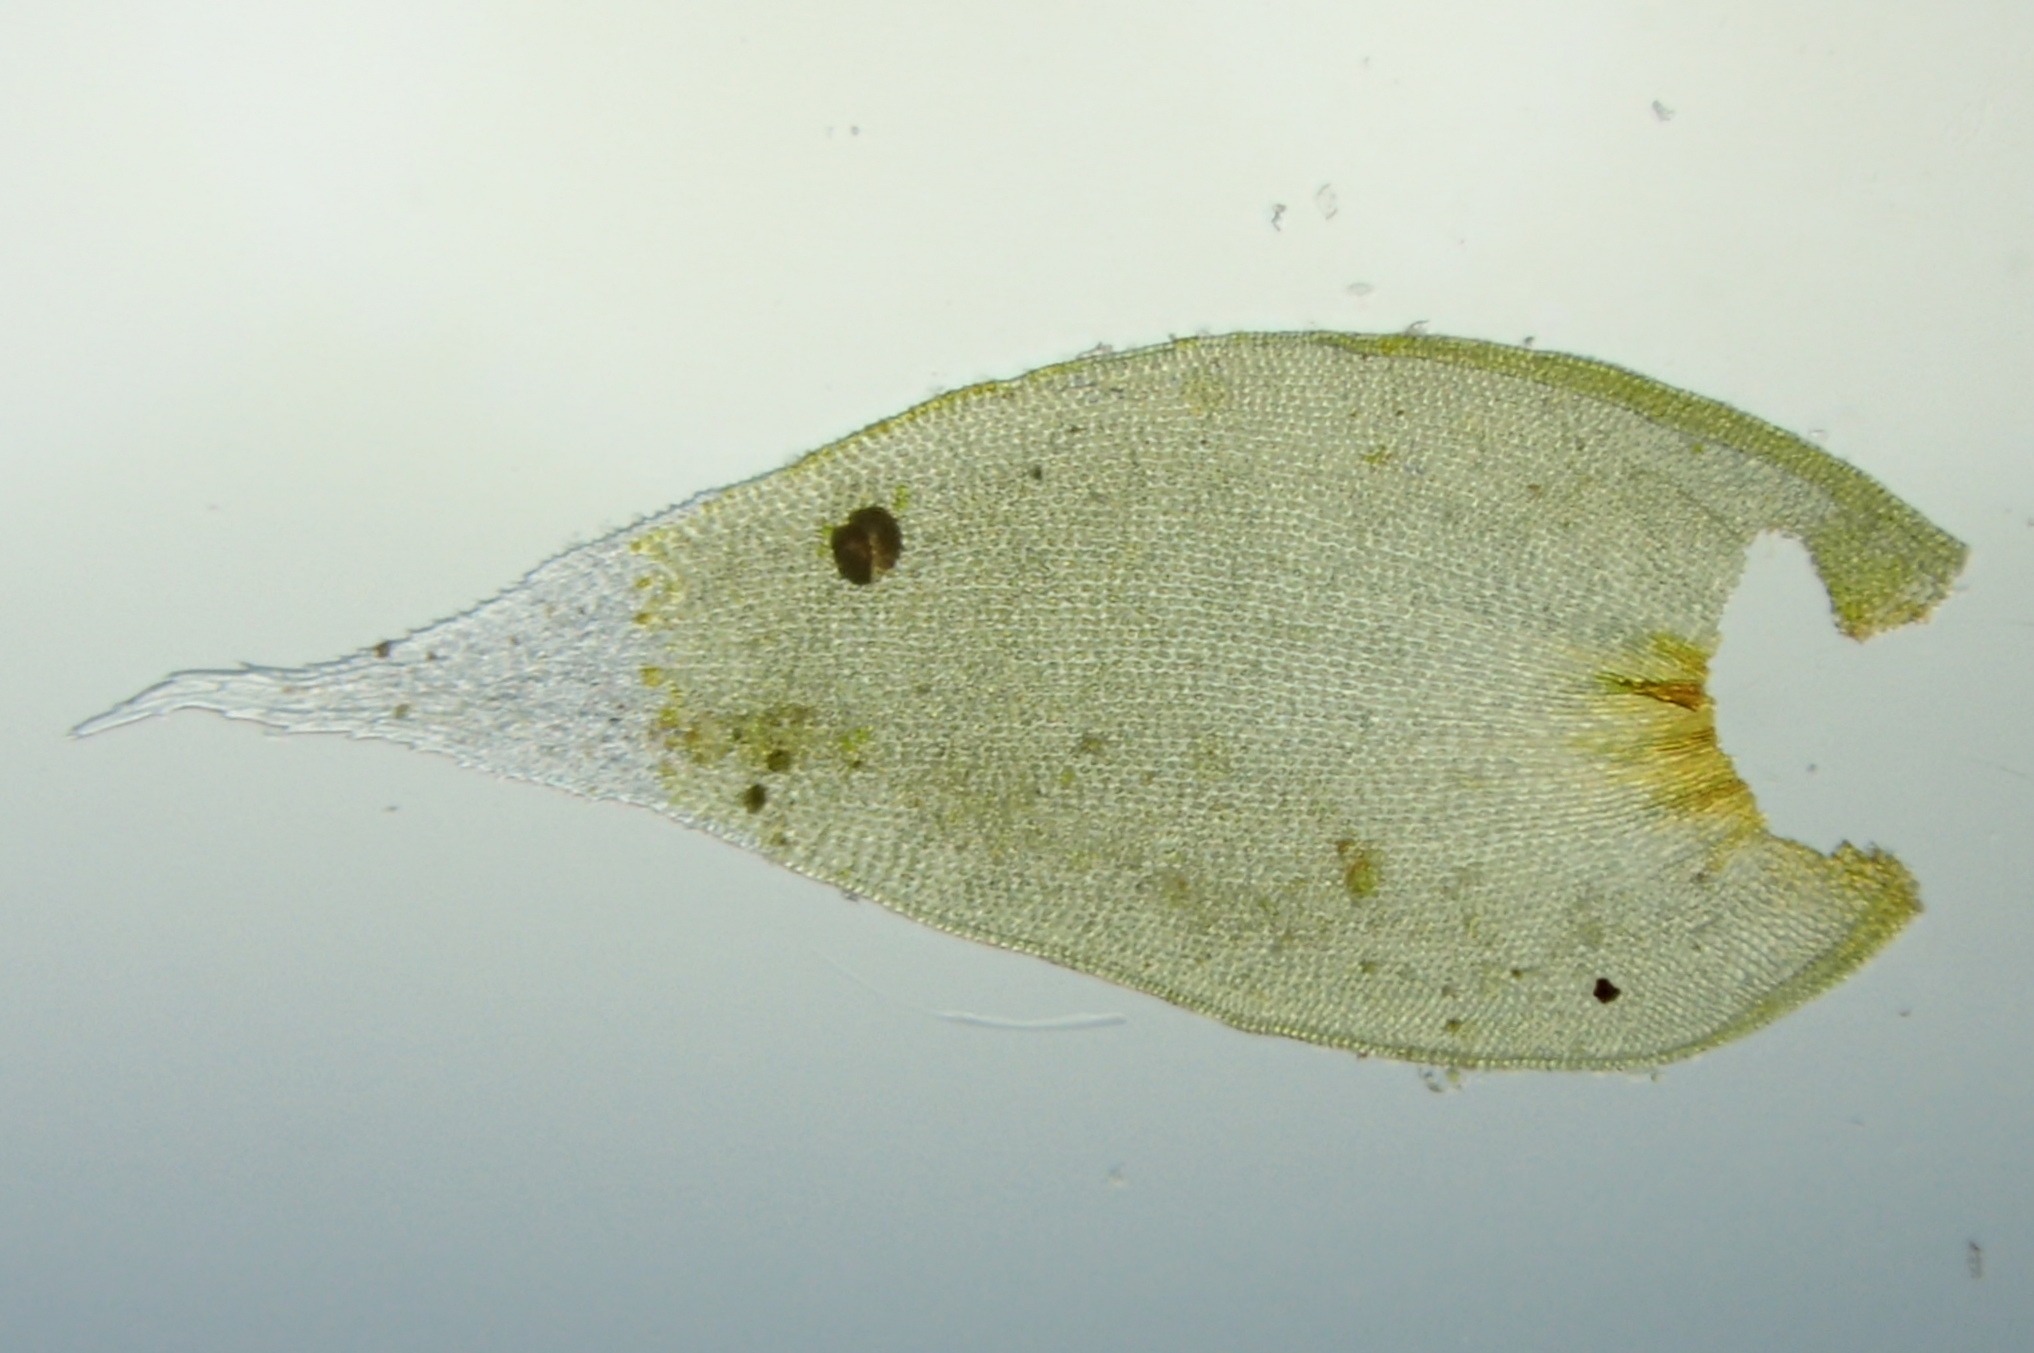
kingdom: Plantae
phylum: Bryophyta
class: Bryopsida
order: Hedwigiales
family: Hedwigiaceae
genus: Hedwigia
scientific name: Hedwigia ciliata
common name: Hvidspidset hedwigia
